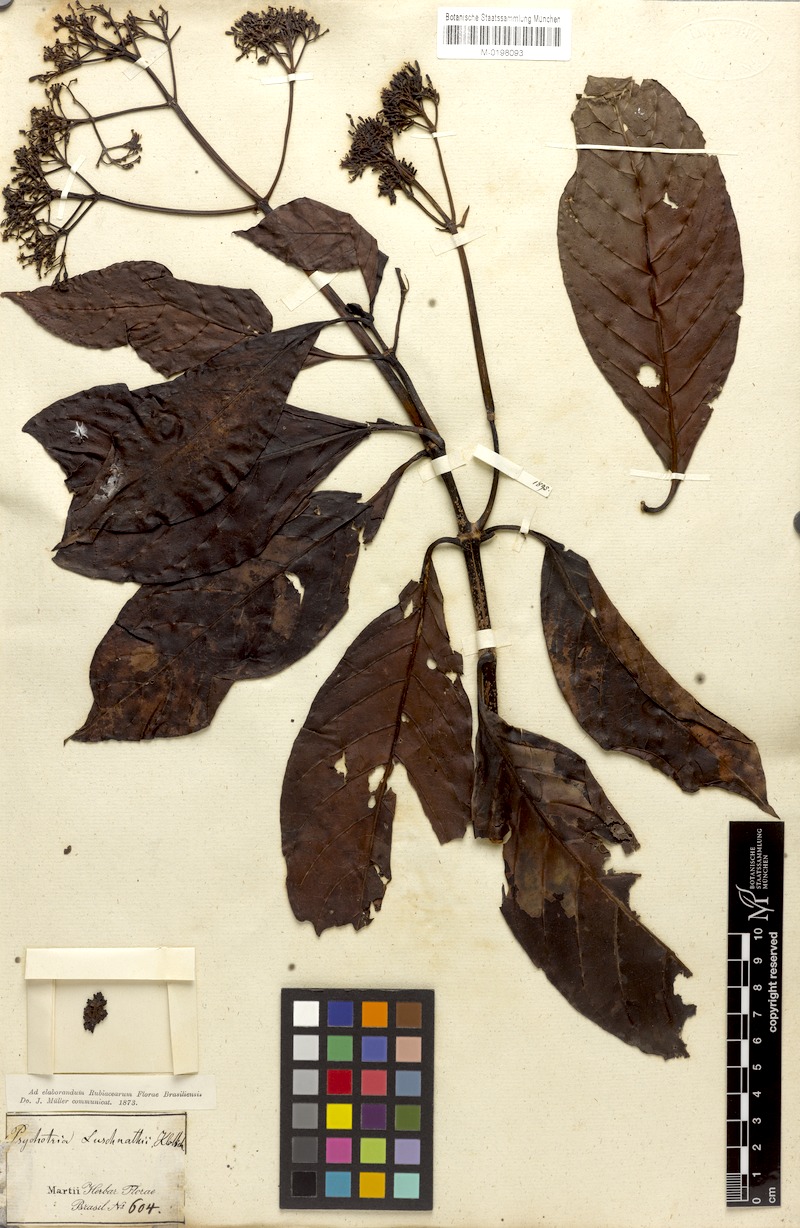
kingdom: Plantae
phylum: Tracheophyta
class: Magnoliopsida
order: Gentianales
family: Rubiaceae
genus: Psychotria
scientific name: Psychotria pedunculosa
